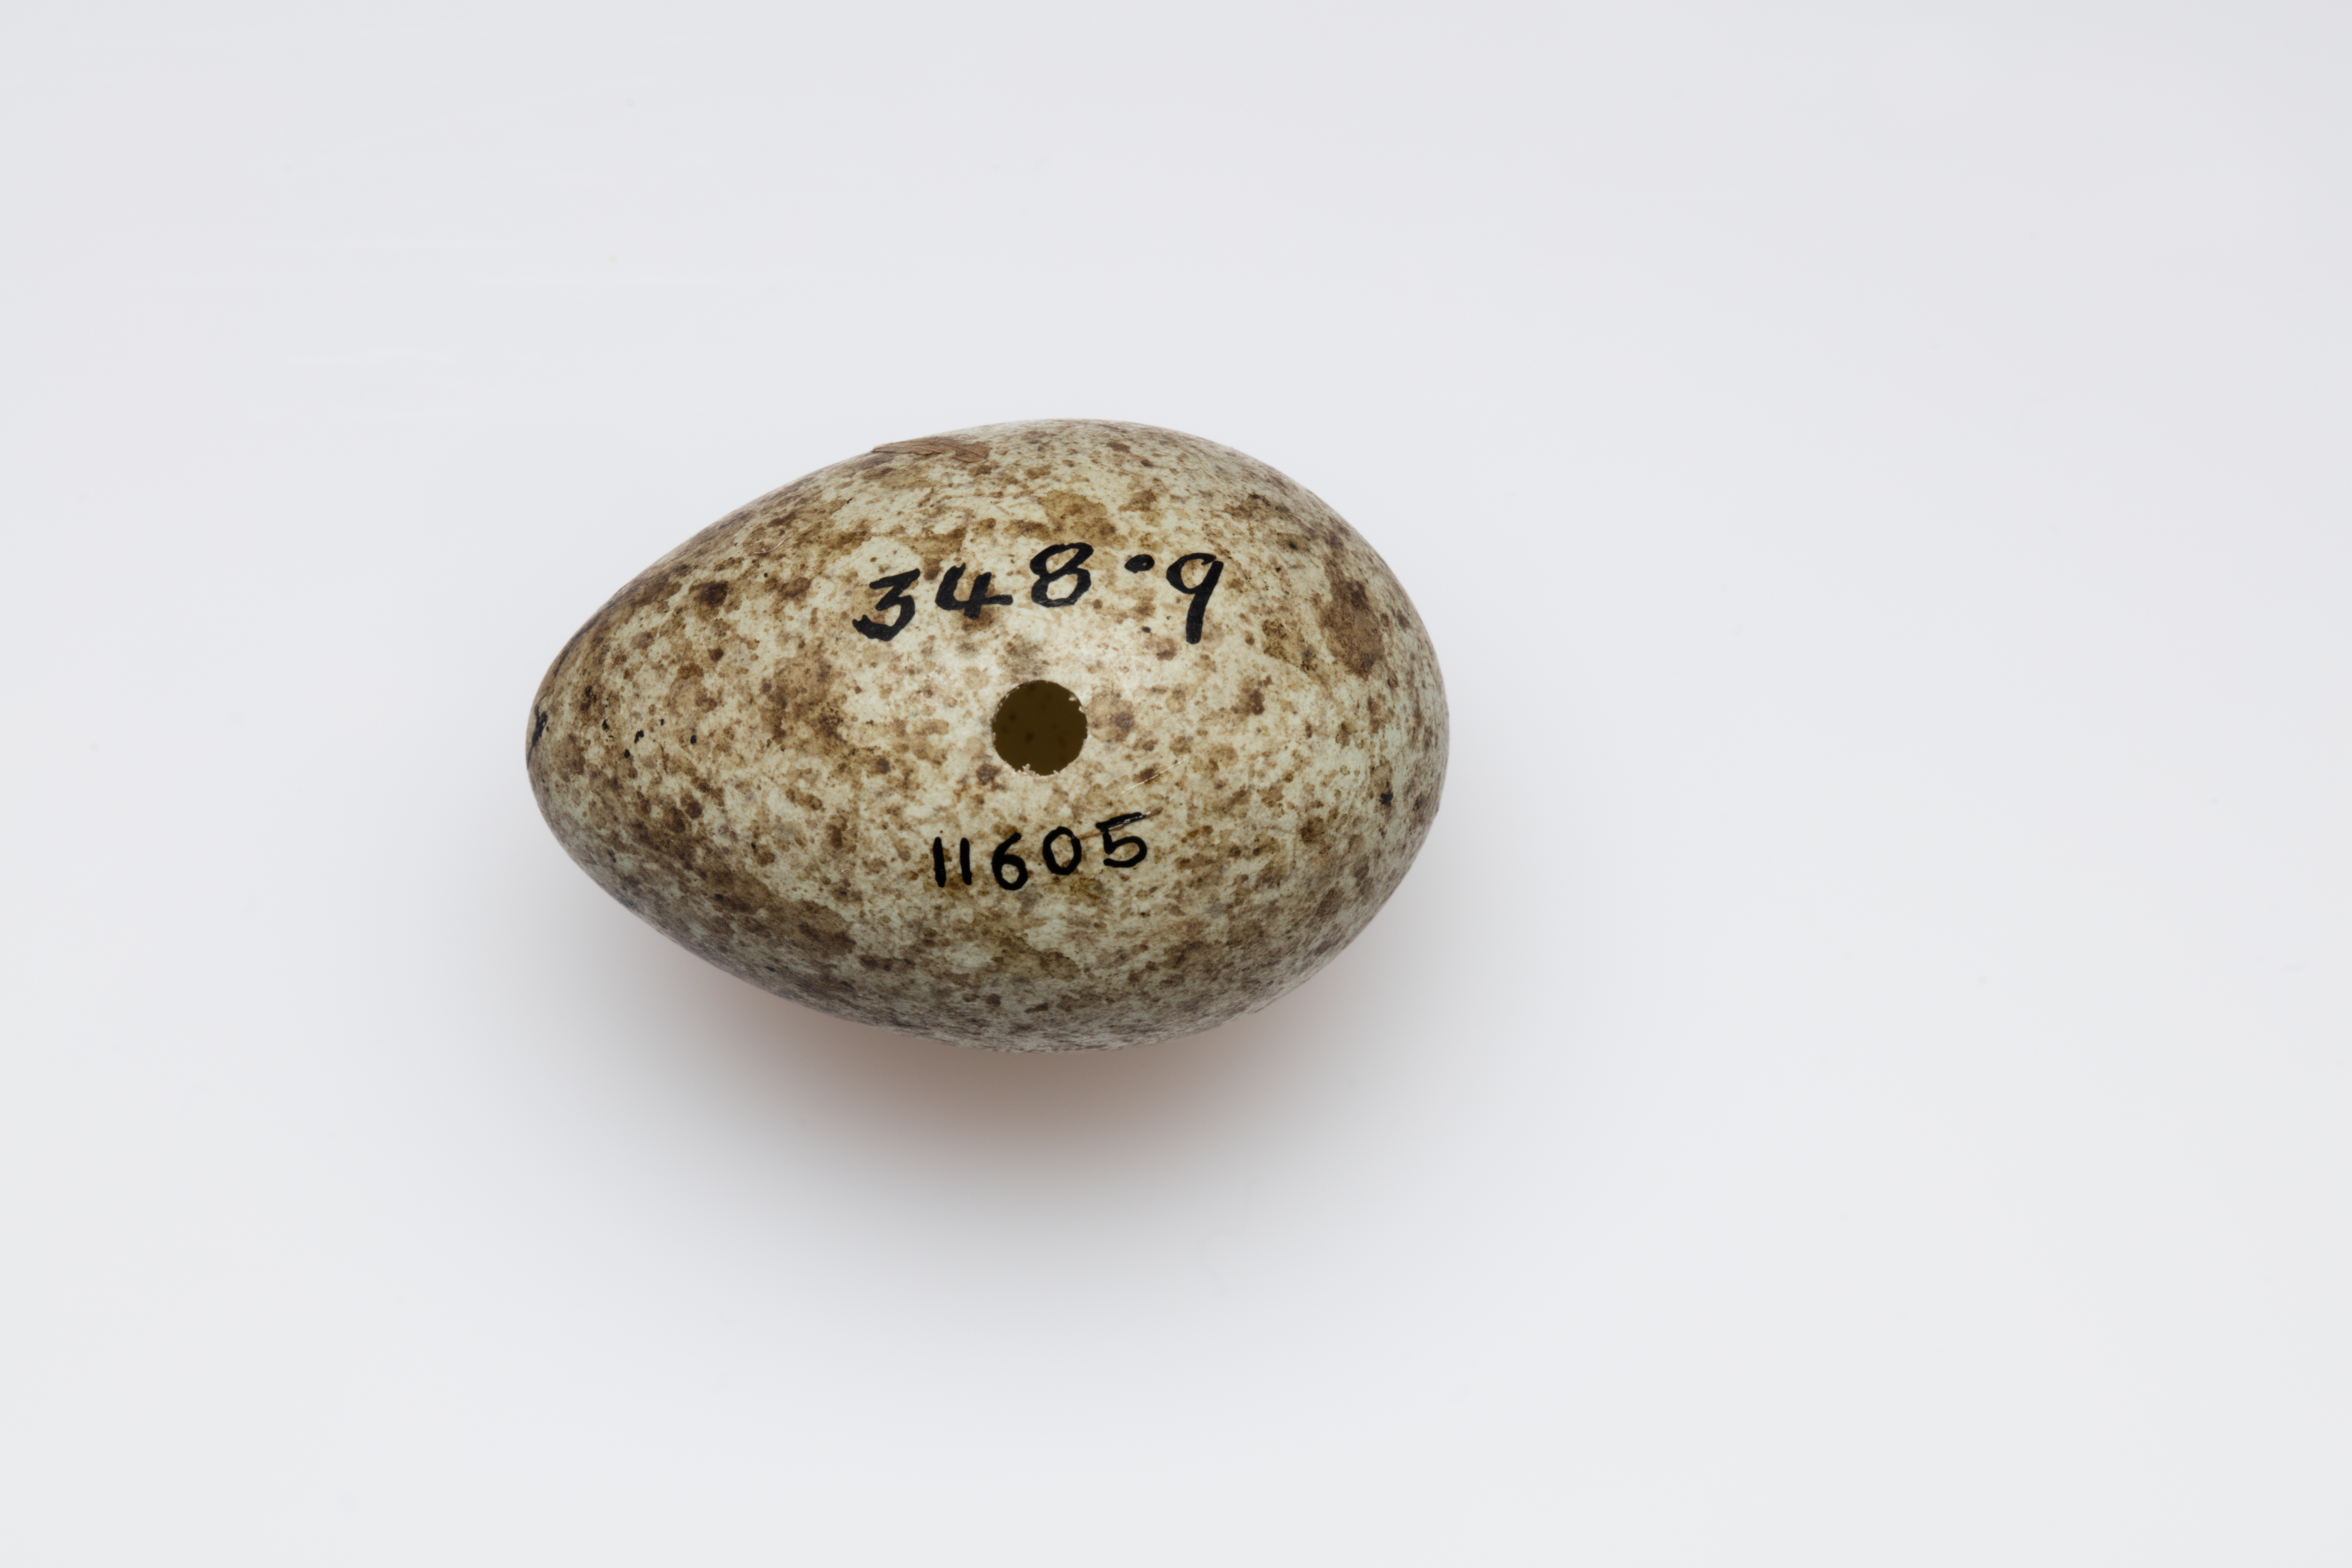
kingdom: Animalia
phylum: Chordata
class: Aves
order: Passeriformes
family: Corvidae
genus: Corvus
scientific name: Corvus cornix
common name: Hooded crow
